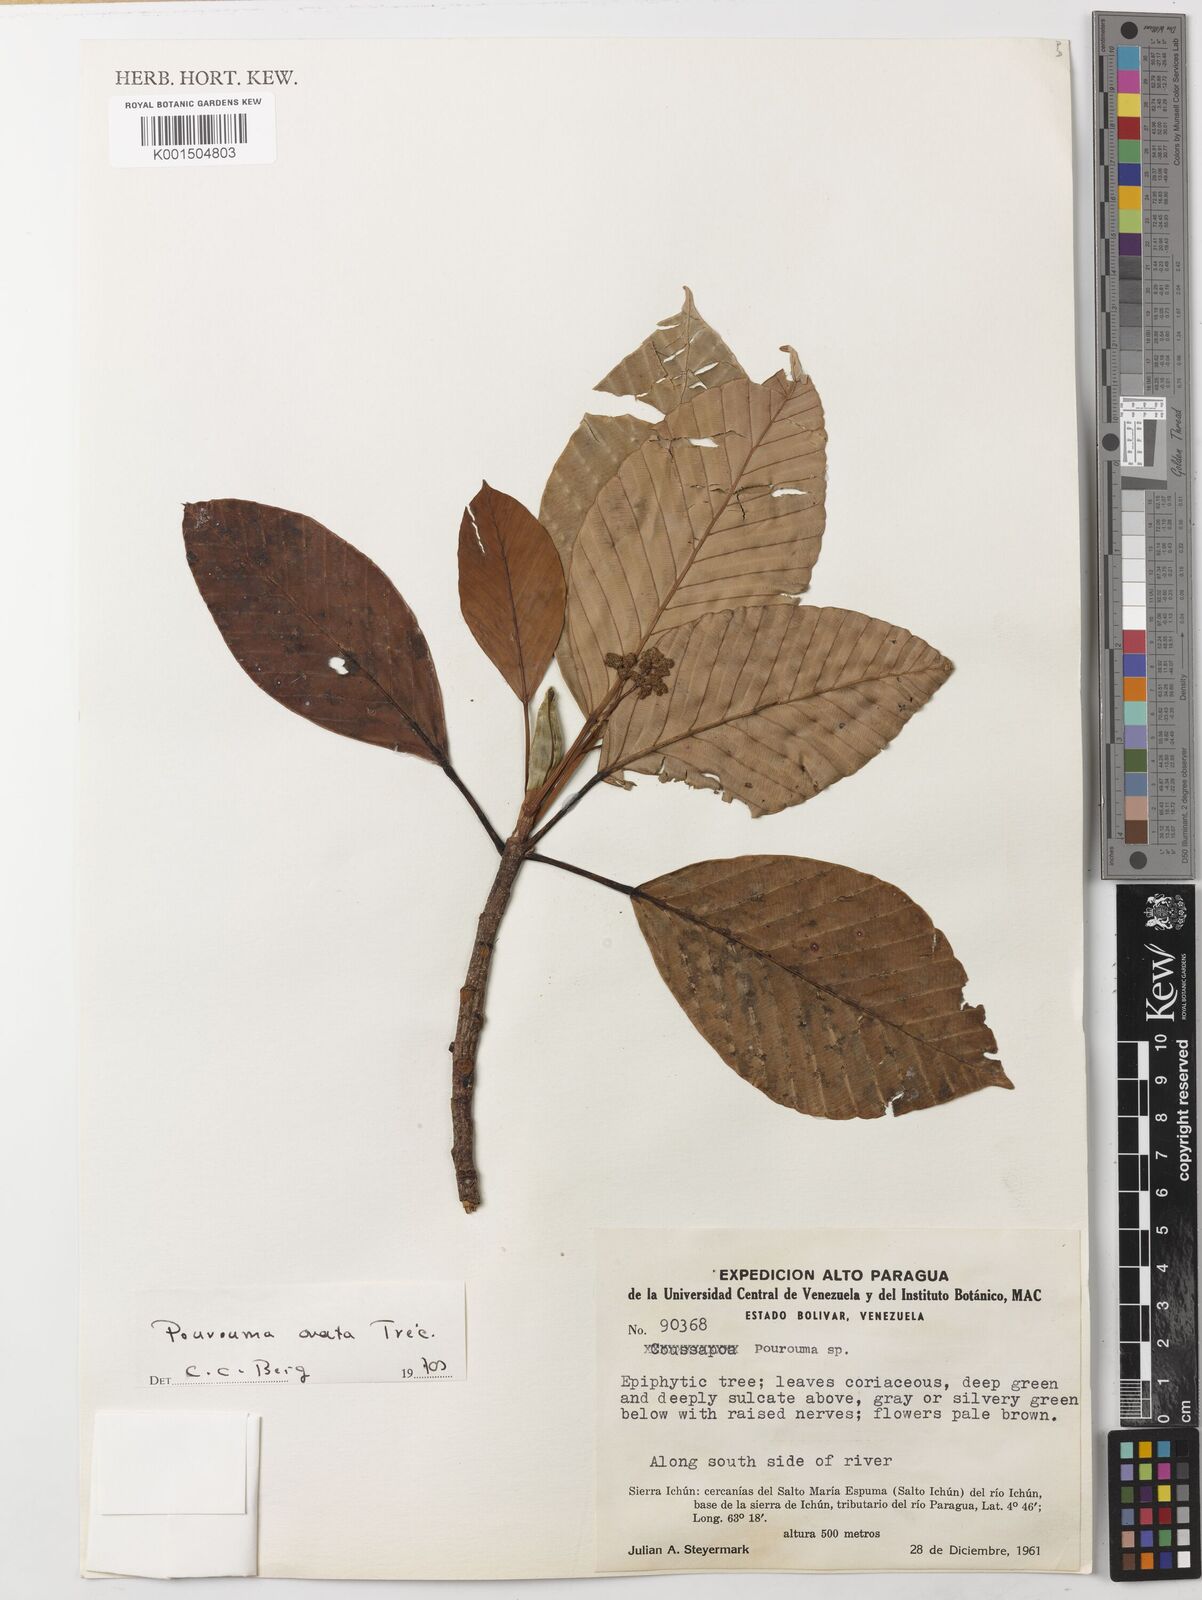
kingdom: Plantae
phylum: Tracheophyta
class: Magnoliopsida
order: Rosales
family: Urticaceae
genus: Pourouma
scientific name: Pourouma ovata
